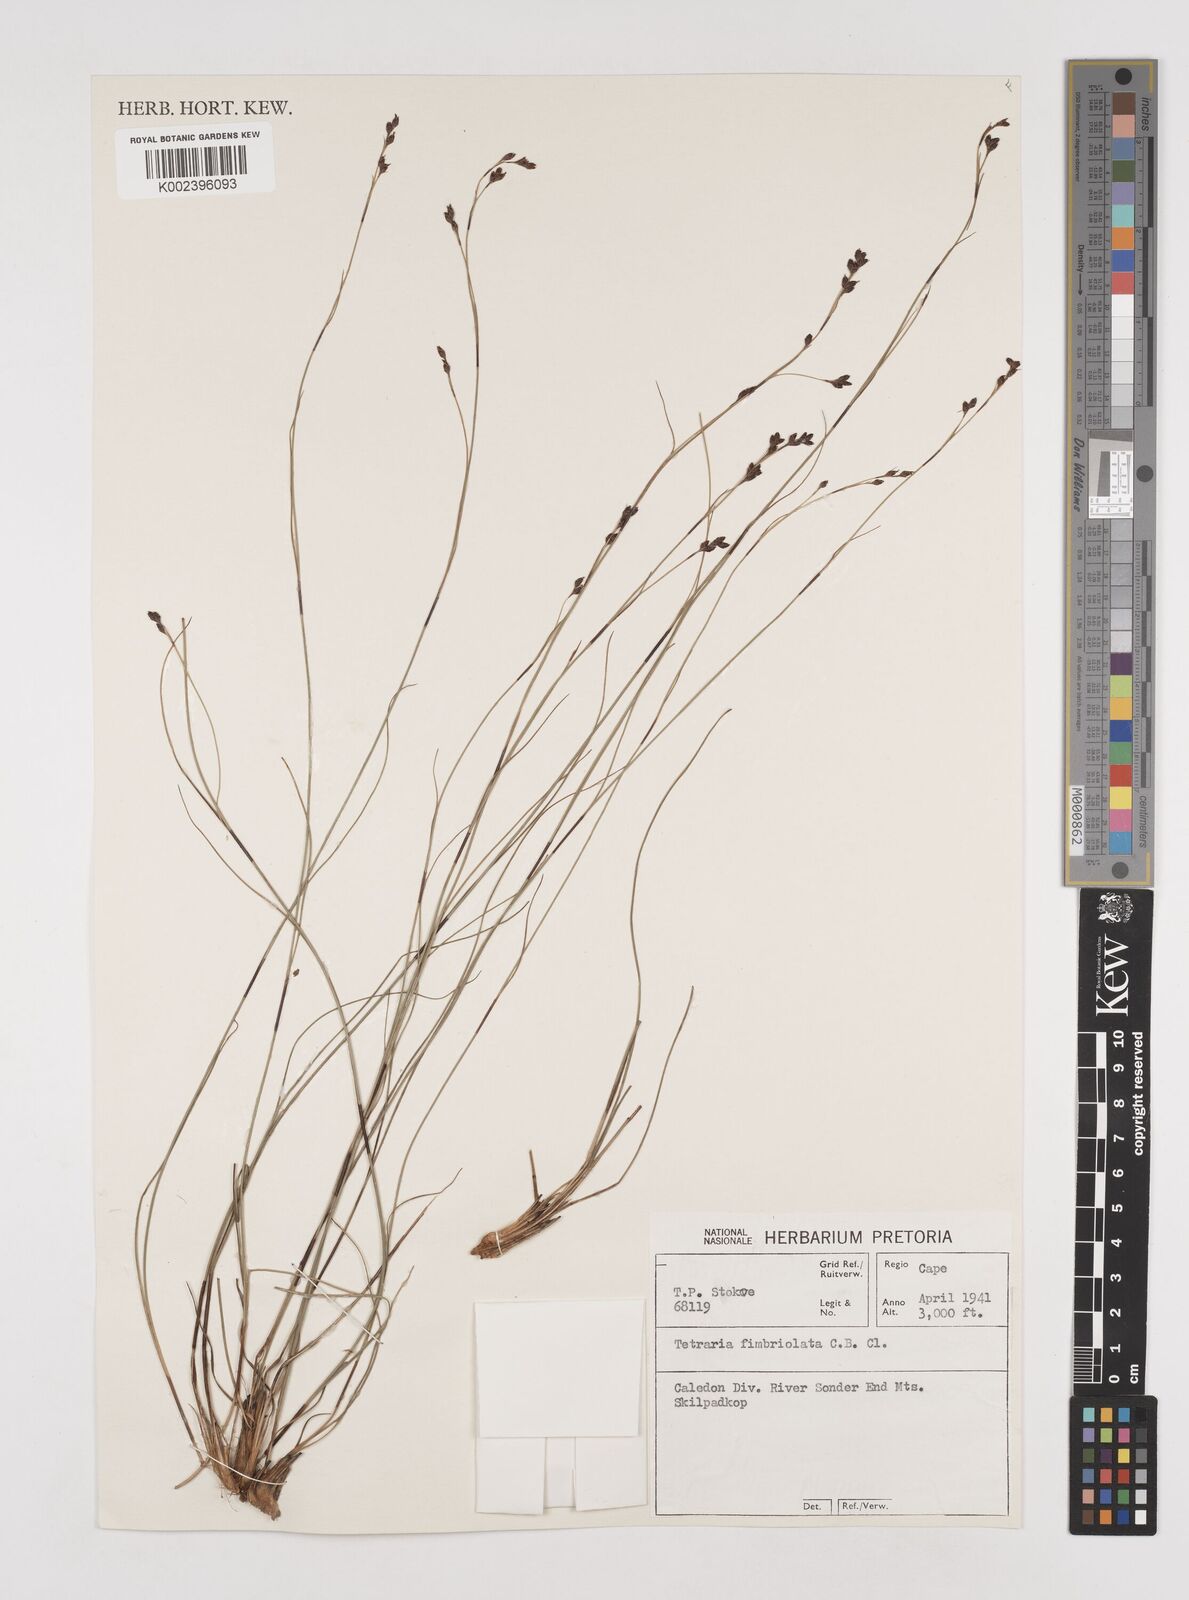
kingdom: Plantae
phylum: Tracheophyta
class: Liliopsida
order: Poales
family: Cyperaceae
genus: Tetraria
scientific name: Tetraria fimbriolata
